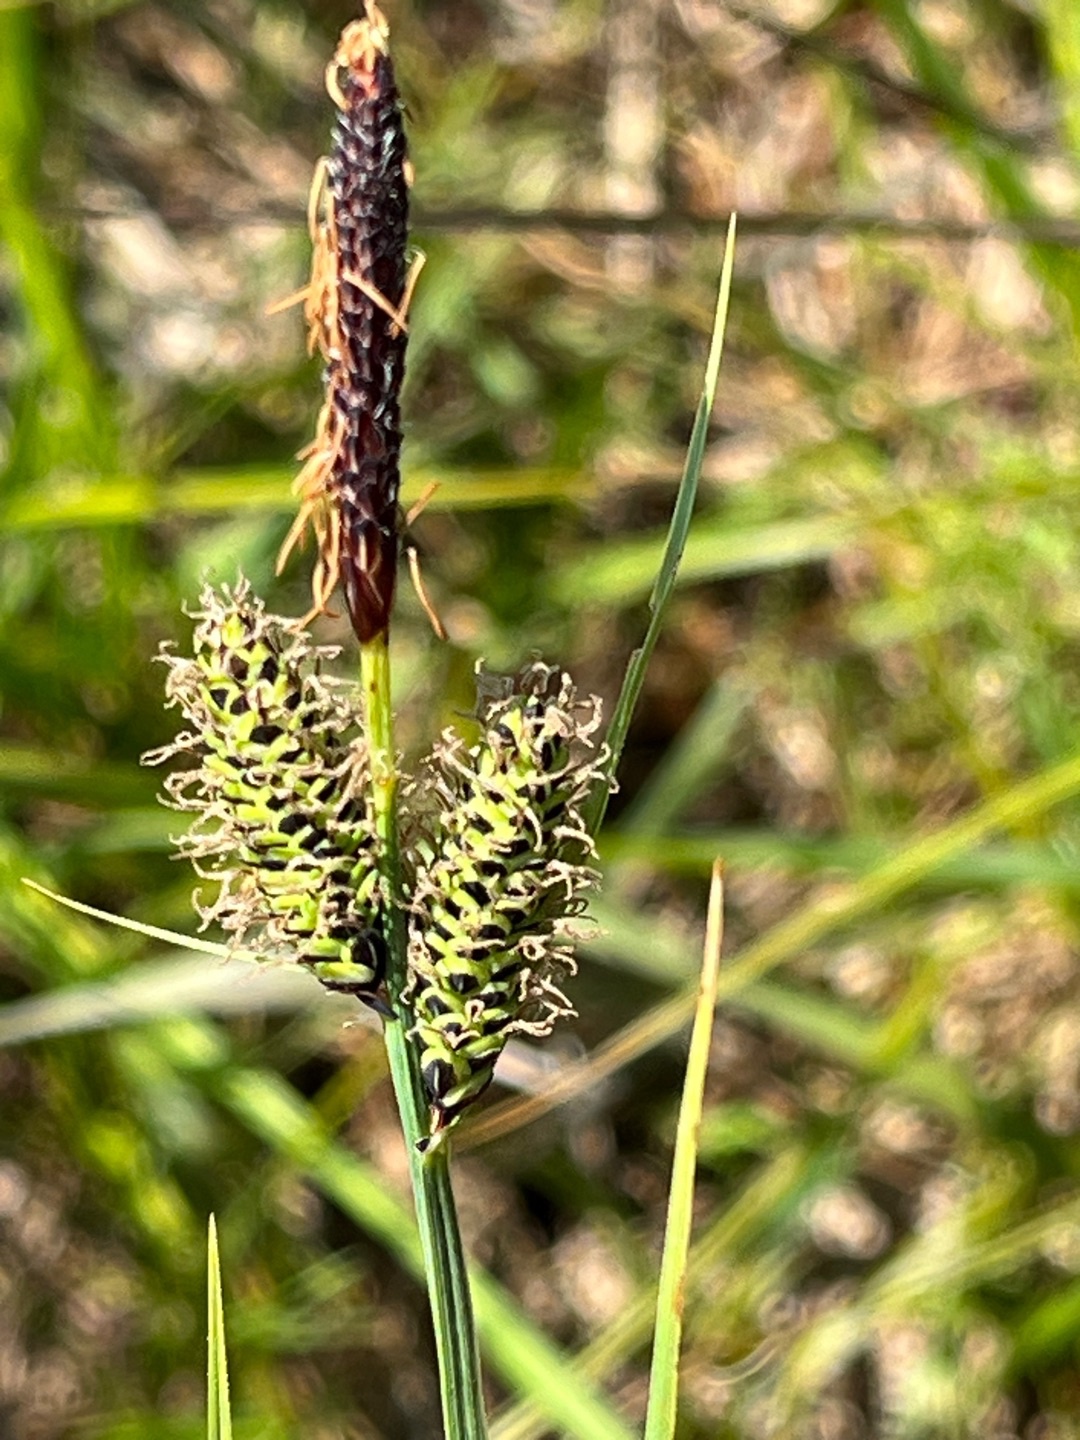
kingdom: Plantae
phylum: Tracheophyta
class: Liliopsida
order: Poales
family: Cyperaceae
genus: Carex
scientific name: Carex nigra
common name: Almindelig star
